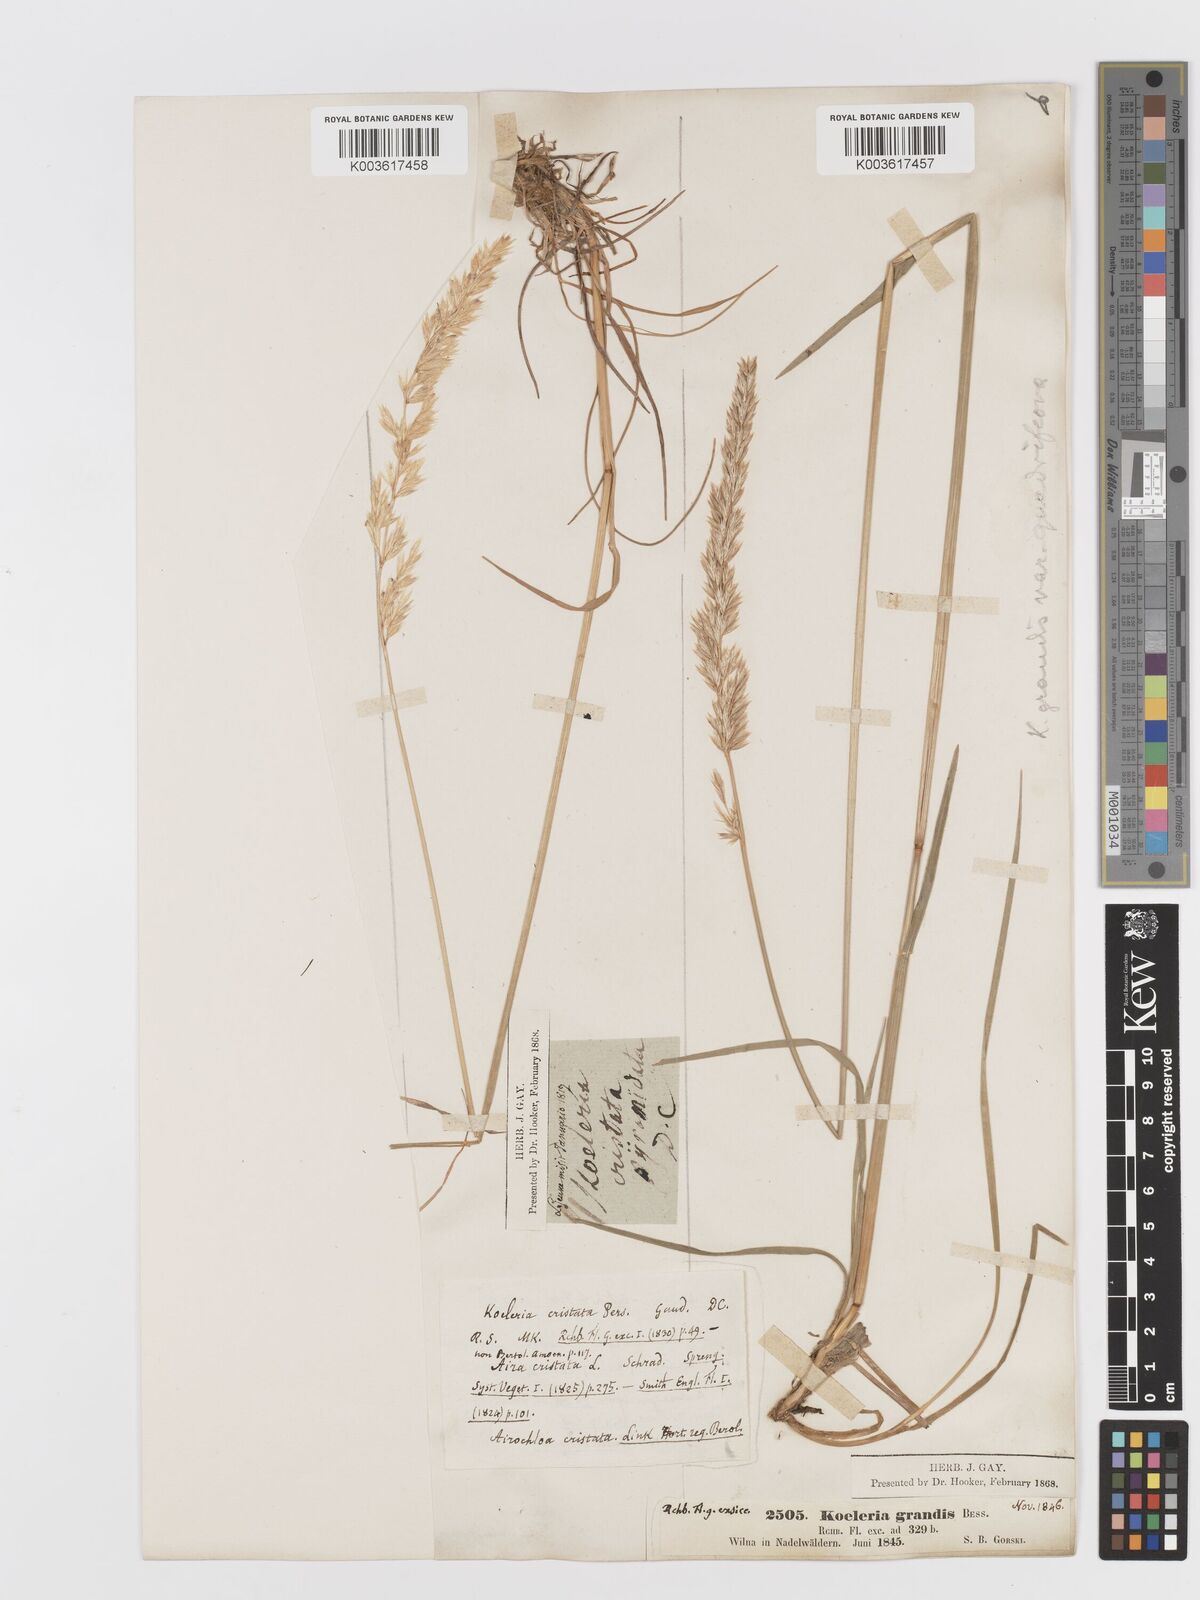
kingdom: Plantae
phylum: Tracheophyta
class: Liliopsida
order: Poales
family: Poaceae
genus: Koeleria
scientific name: Koeleria pyramidata
